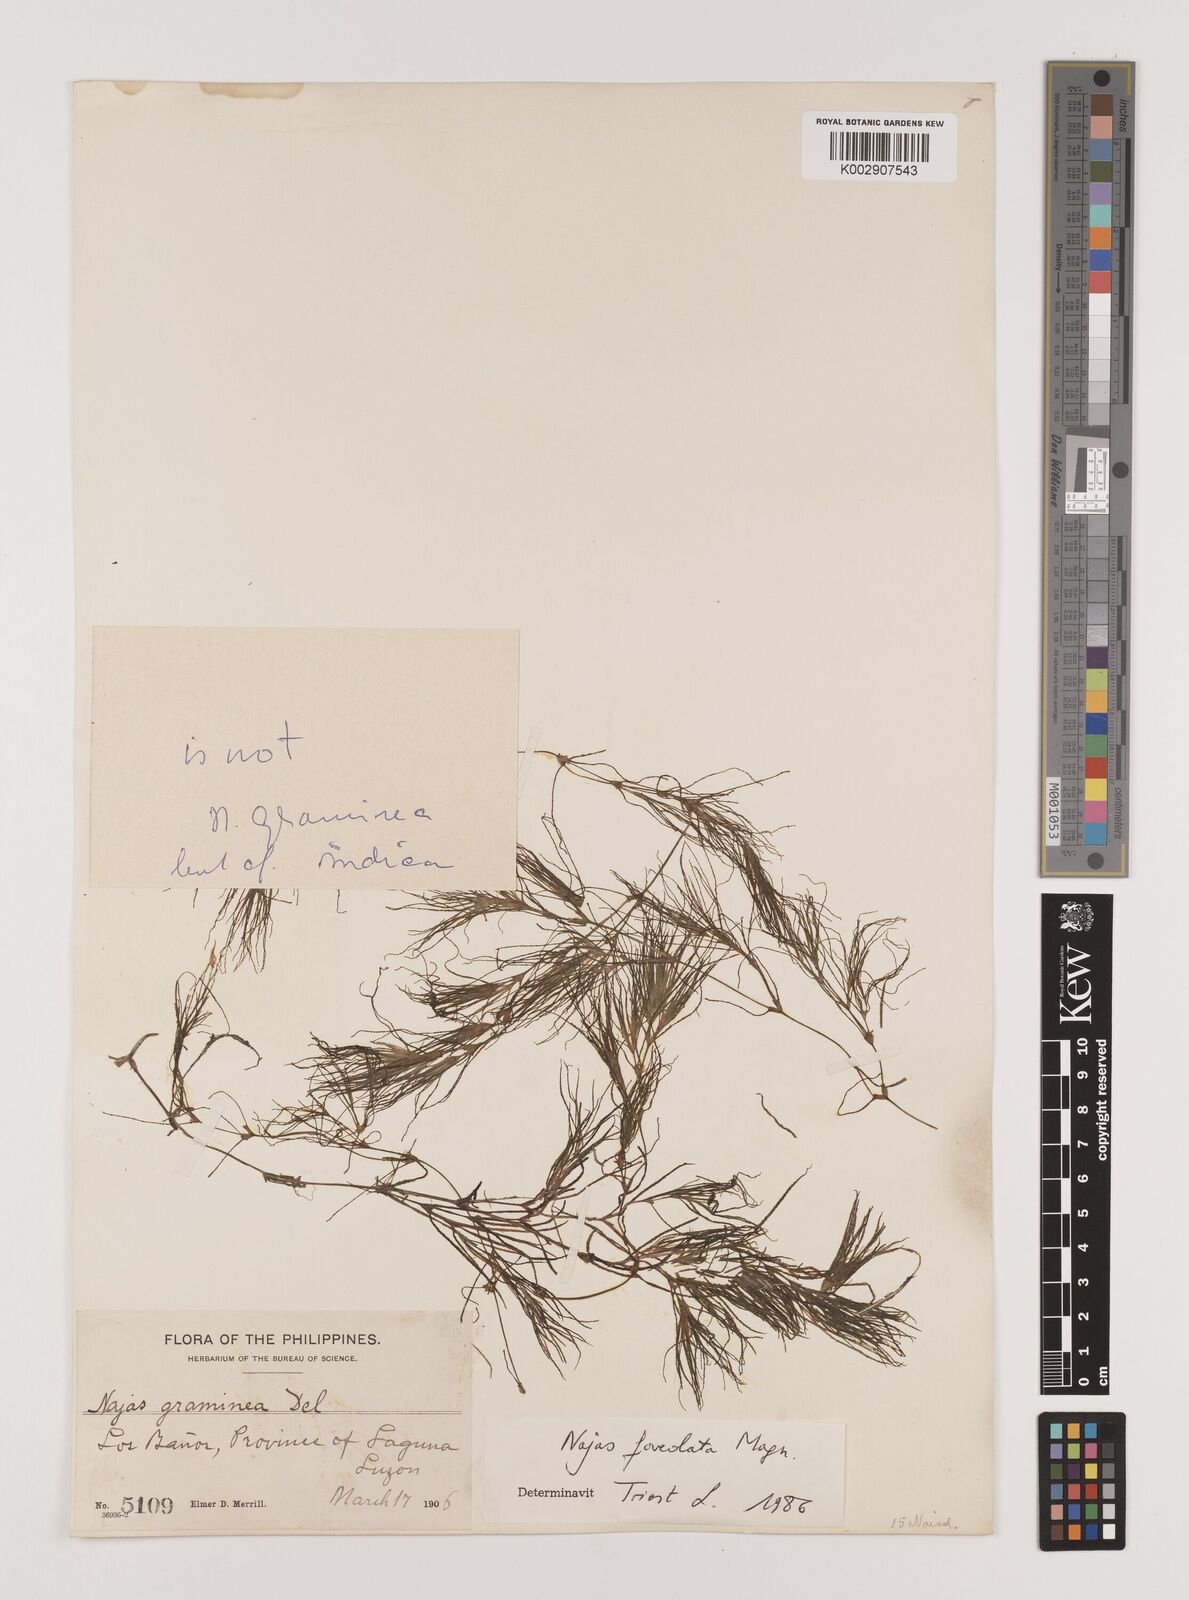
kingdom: Plantae
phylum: Tracheophyta
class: Liliopsida
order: Alismatales
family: Hydrocharitaceae
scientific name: Hydrocharitaceae
